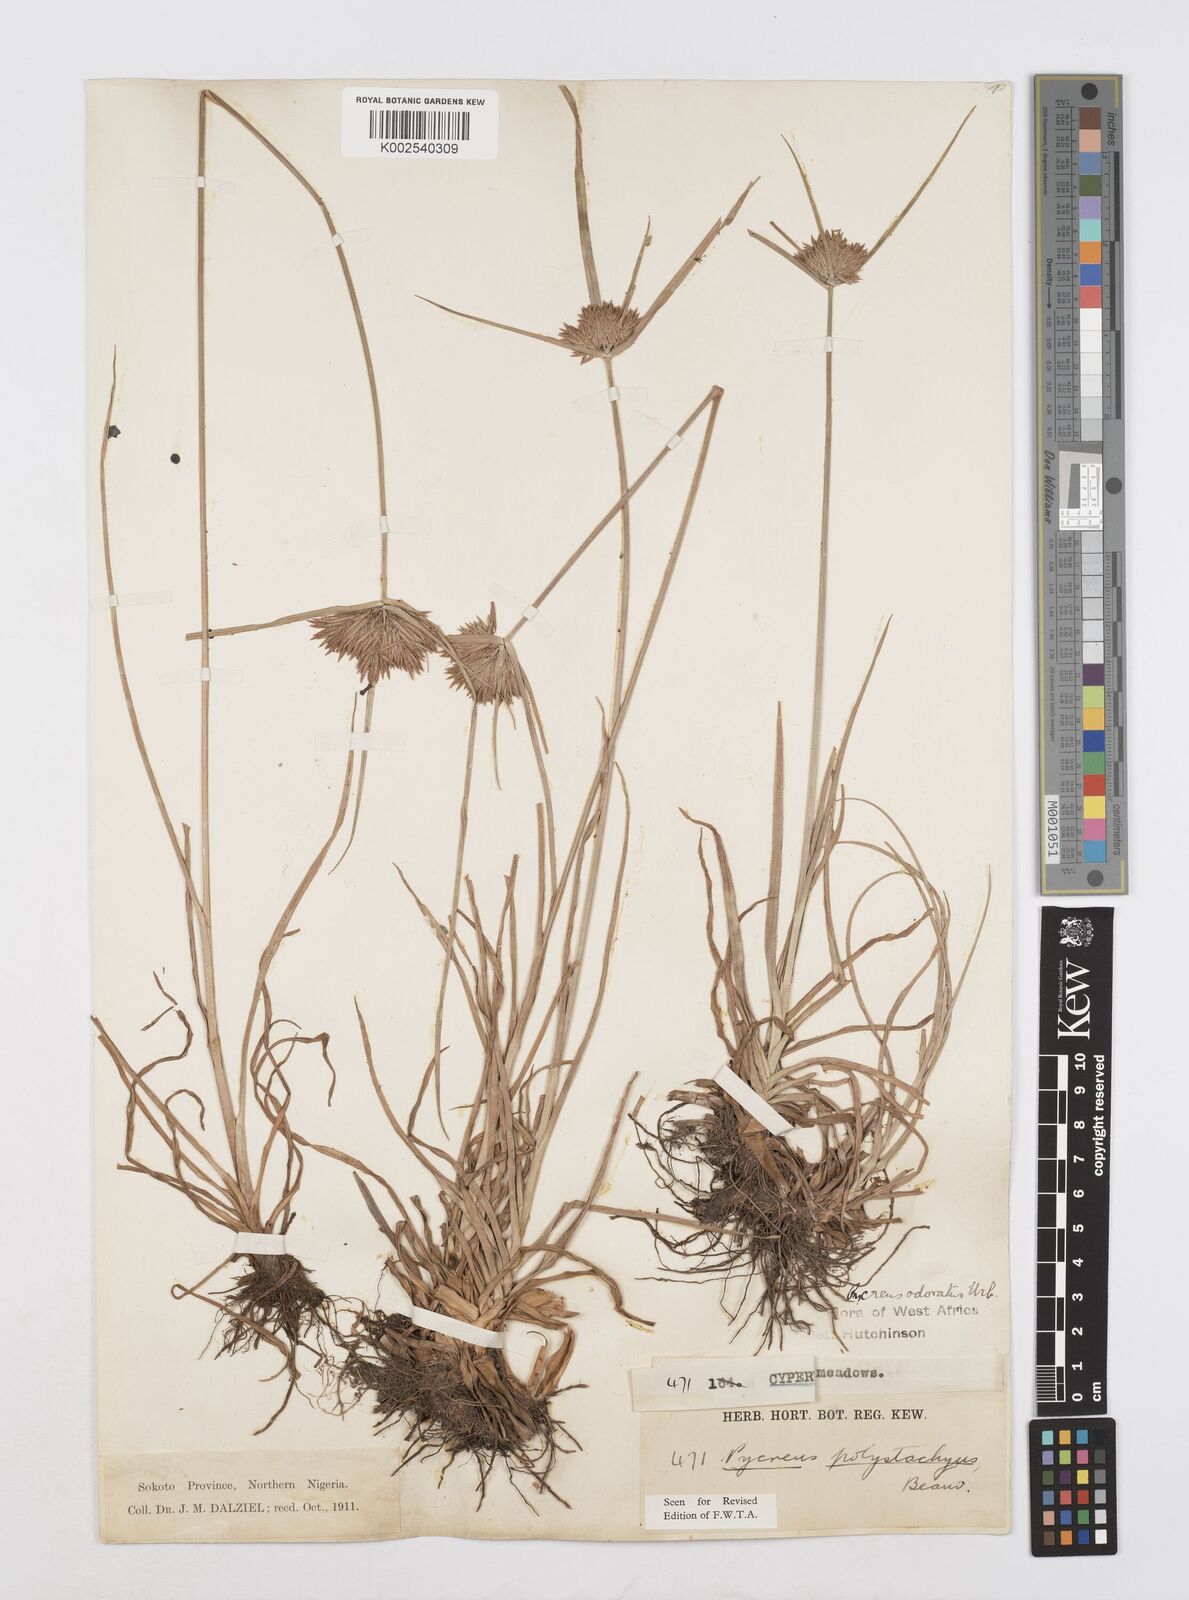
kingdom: Plantae
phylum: Tracheophyta
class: Liliopsida
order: Poales
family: Cyperaceae
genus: Cyperus
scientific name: Cyperus polystachyos
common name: Bunchy flat sedge
